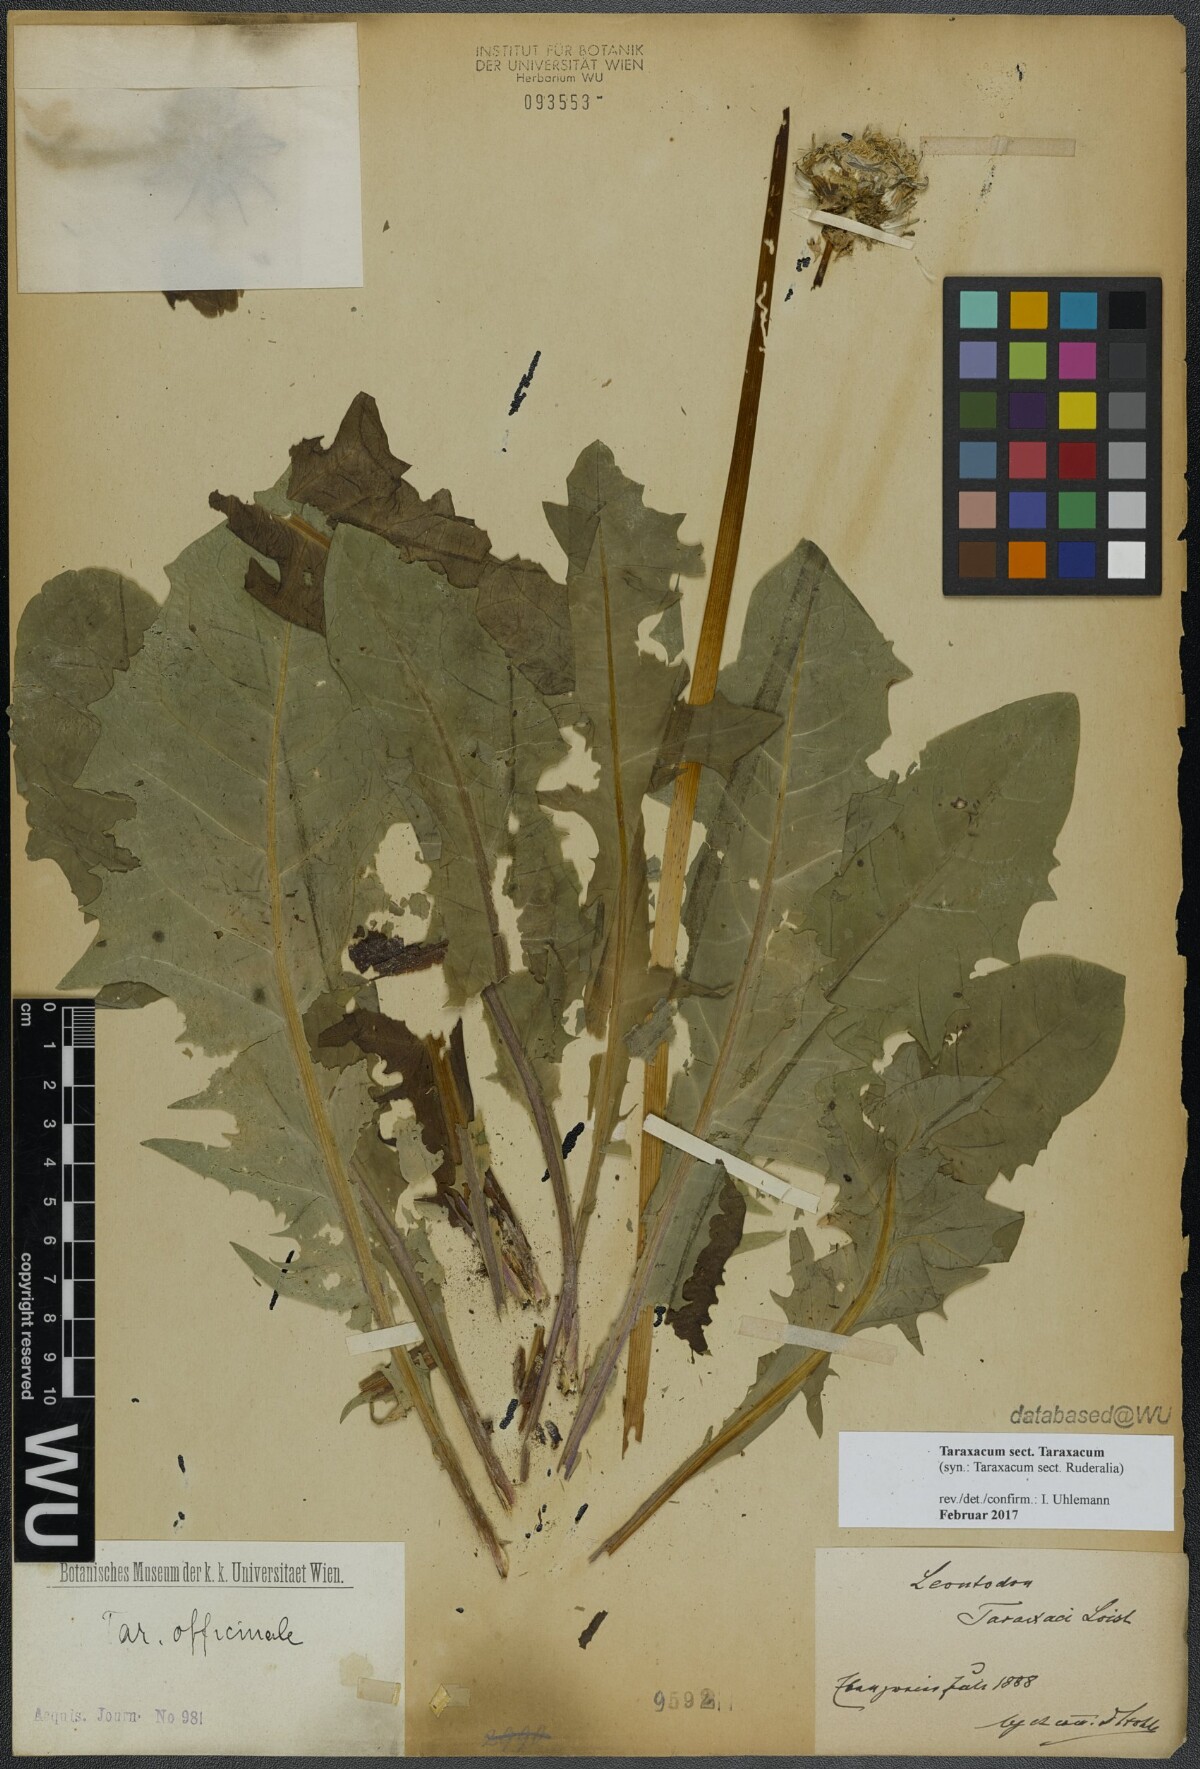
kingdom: Plantae
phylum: Tracheophyta
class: Magnoliopsida
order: Asterales
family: Asteraceae
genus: Taraxacum
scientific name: Taraxacum
